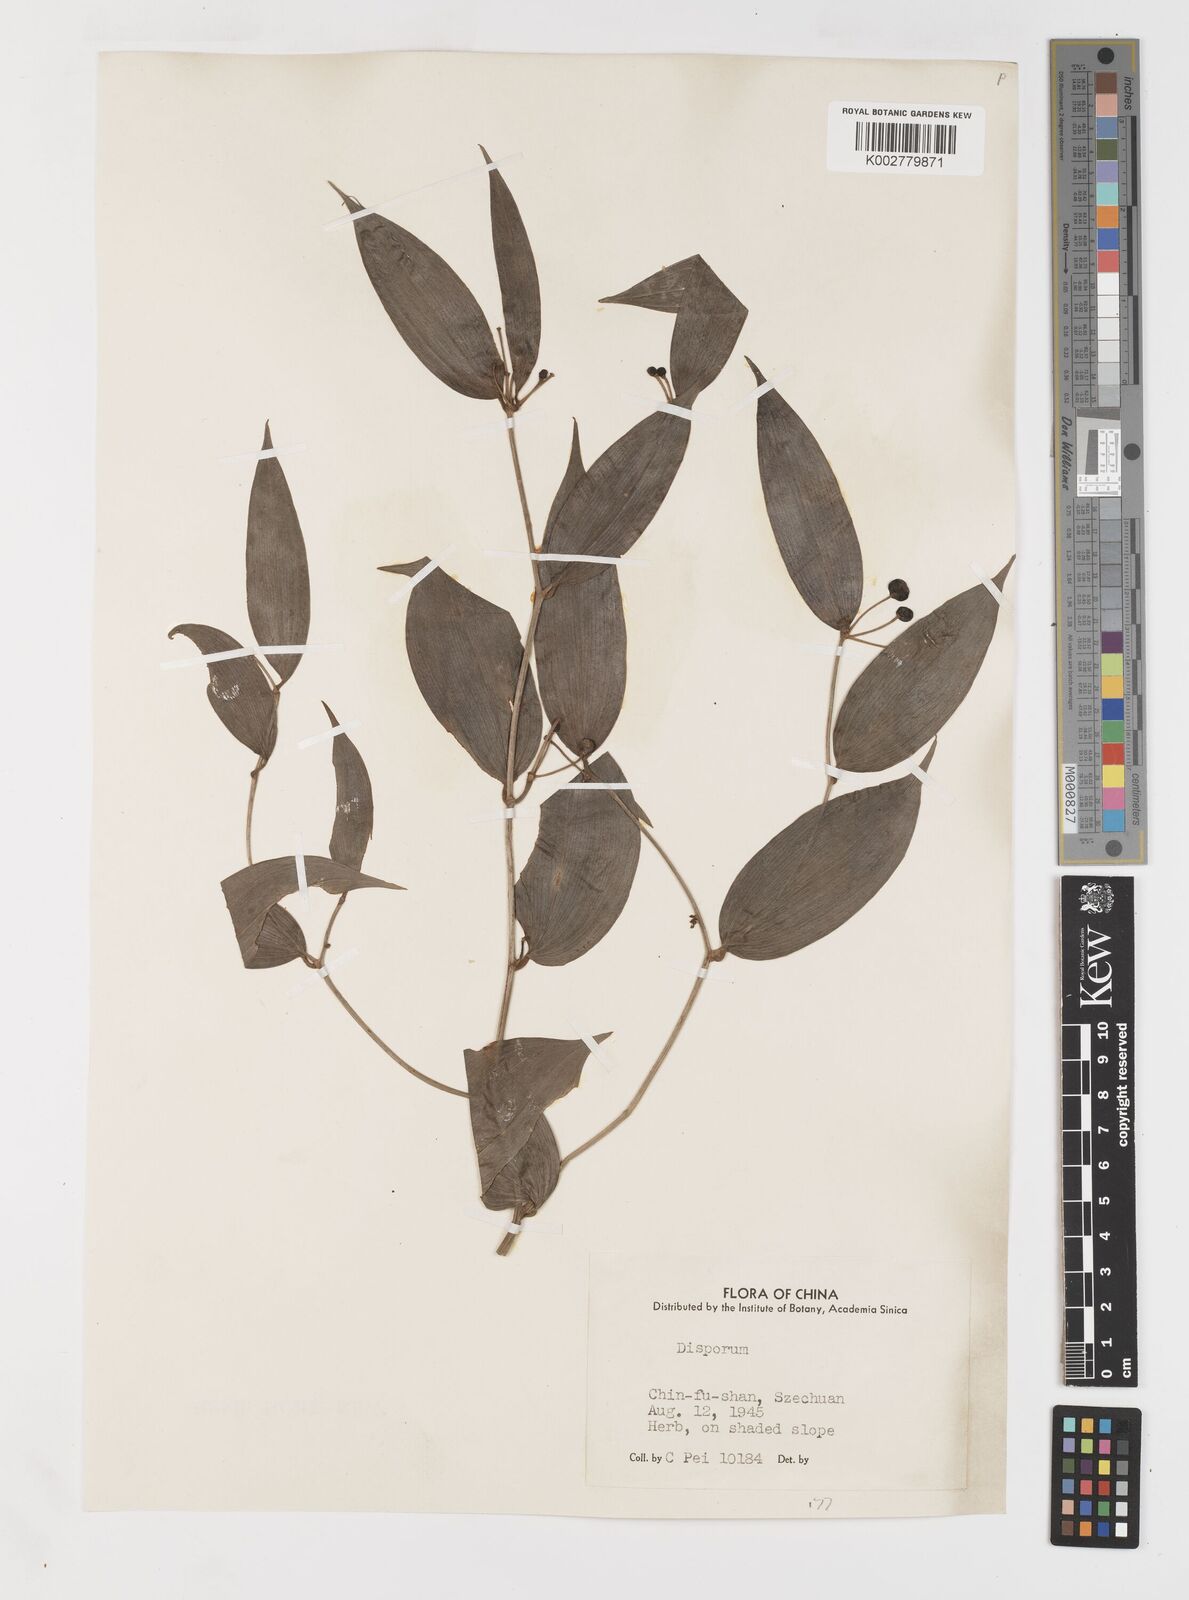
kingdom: Plantae
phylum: Tracheophyta
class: Liliopsida
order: Liliales
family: Colchicaceae
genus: Disporum
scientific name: Disporum
